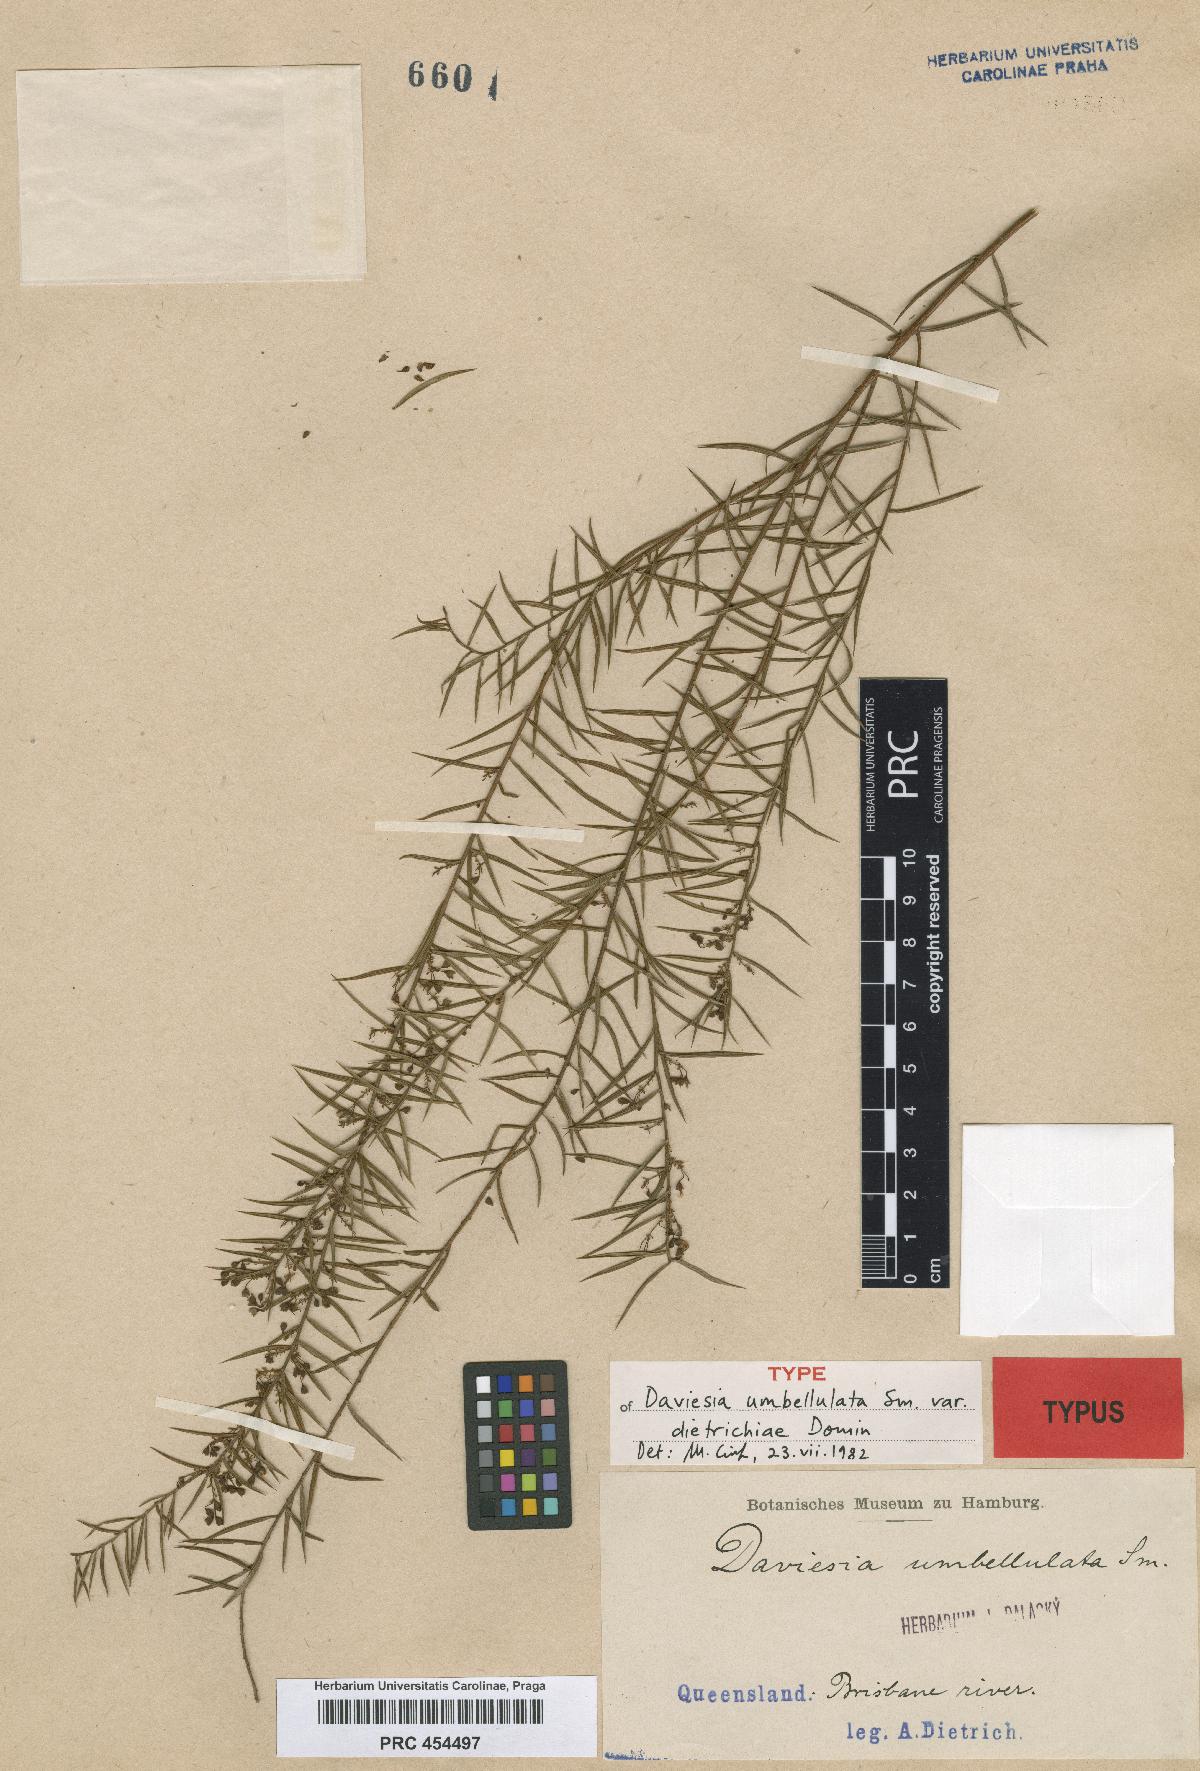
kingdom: Plantae
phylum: Tracheophyta
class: Magnoliopsida
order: Fabales
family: Fabaceae
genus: Daviesia
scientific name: Daviesia umbellulata
